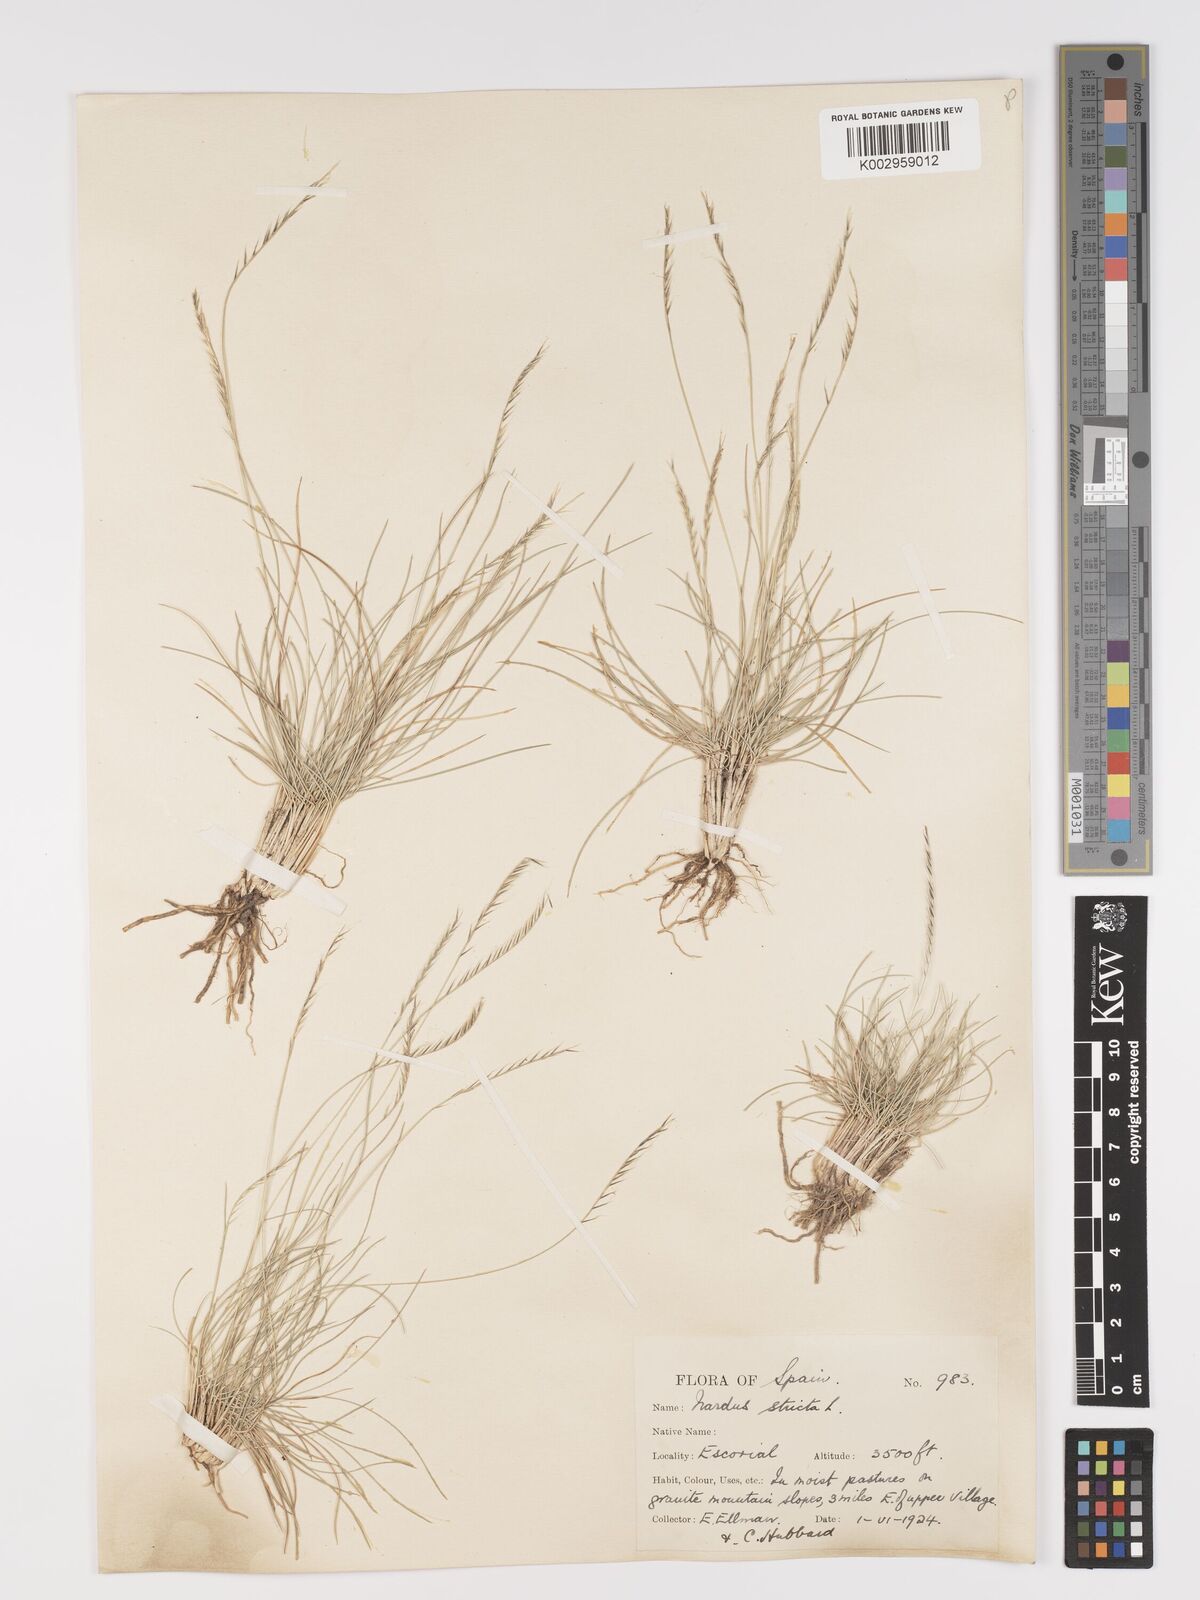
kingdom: Plantae
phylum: Tracheophyta
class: Liliopsida
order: Poales
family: Poaceae
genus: Nardus
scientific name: Nardus stricta
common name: Mat-grass
